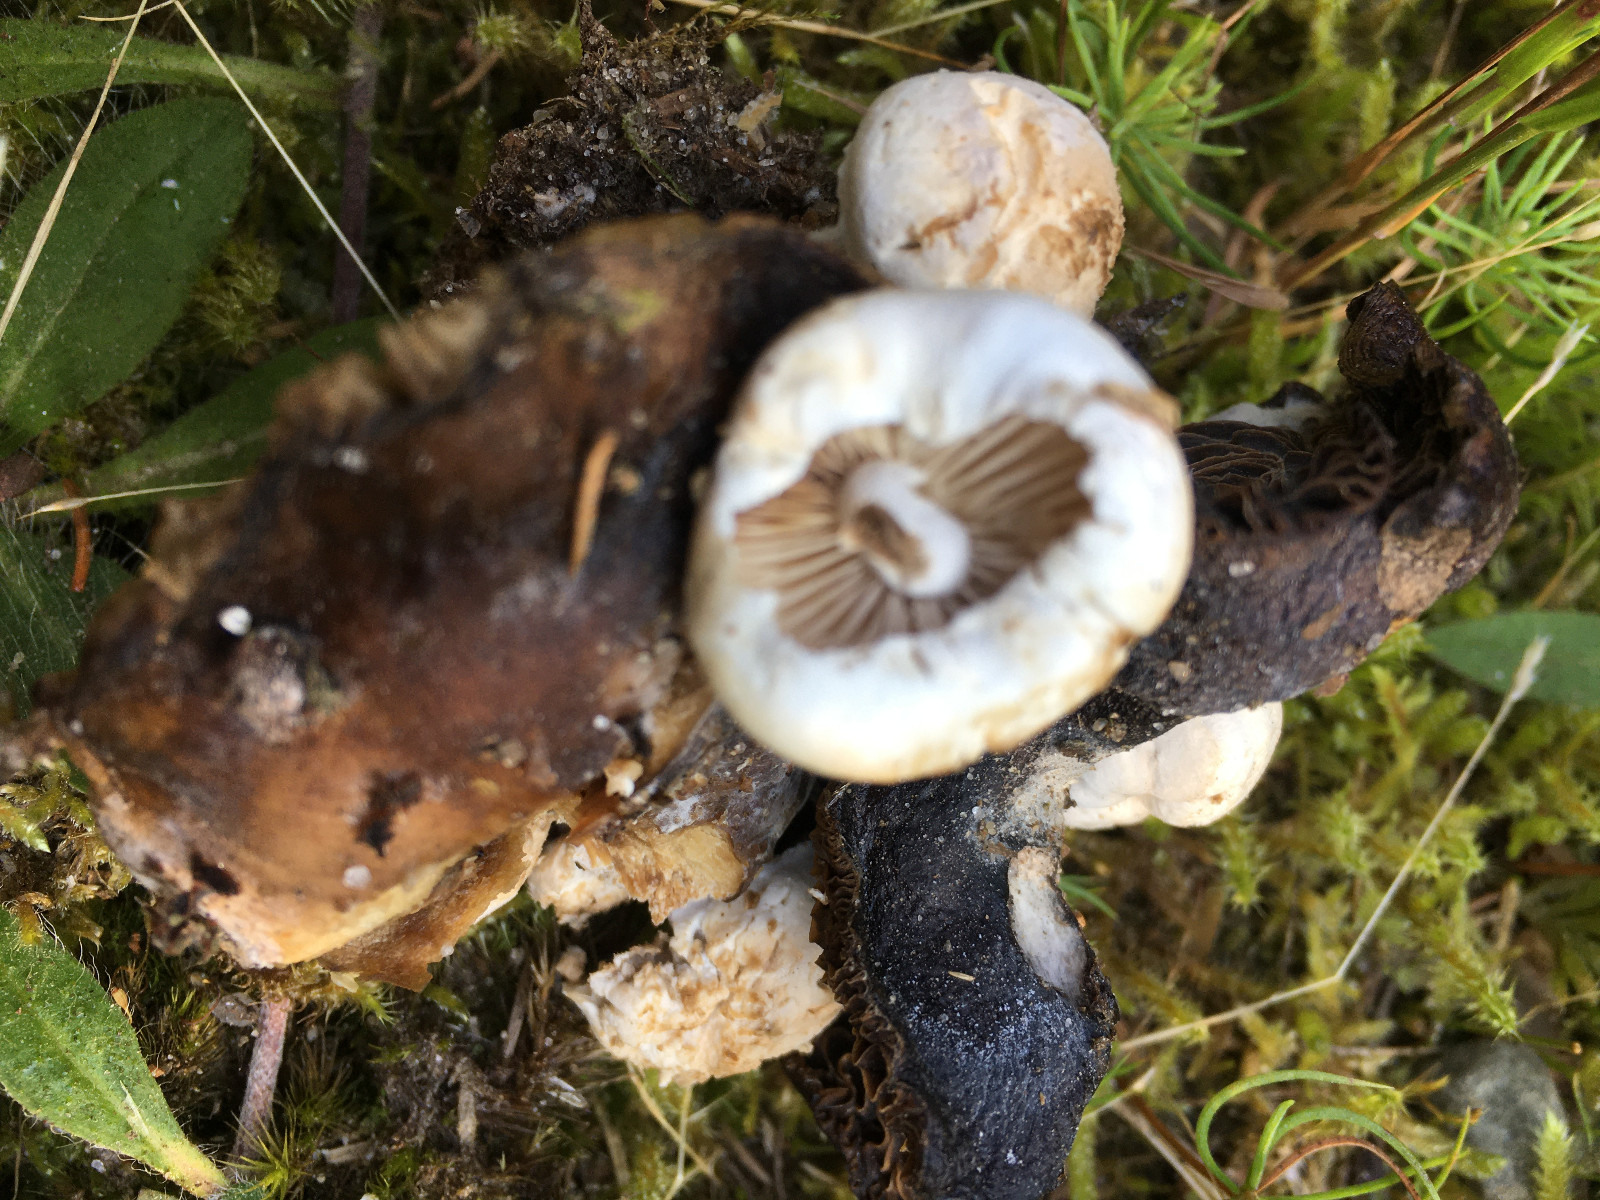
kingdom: Fungi
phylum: Basidiomycota
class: Agaricomycetes
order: Agaricales
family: Lyophyllaceae
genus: Asterophora
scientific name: Asterophora lycoperdoides
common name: brunpudret snyltehat
